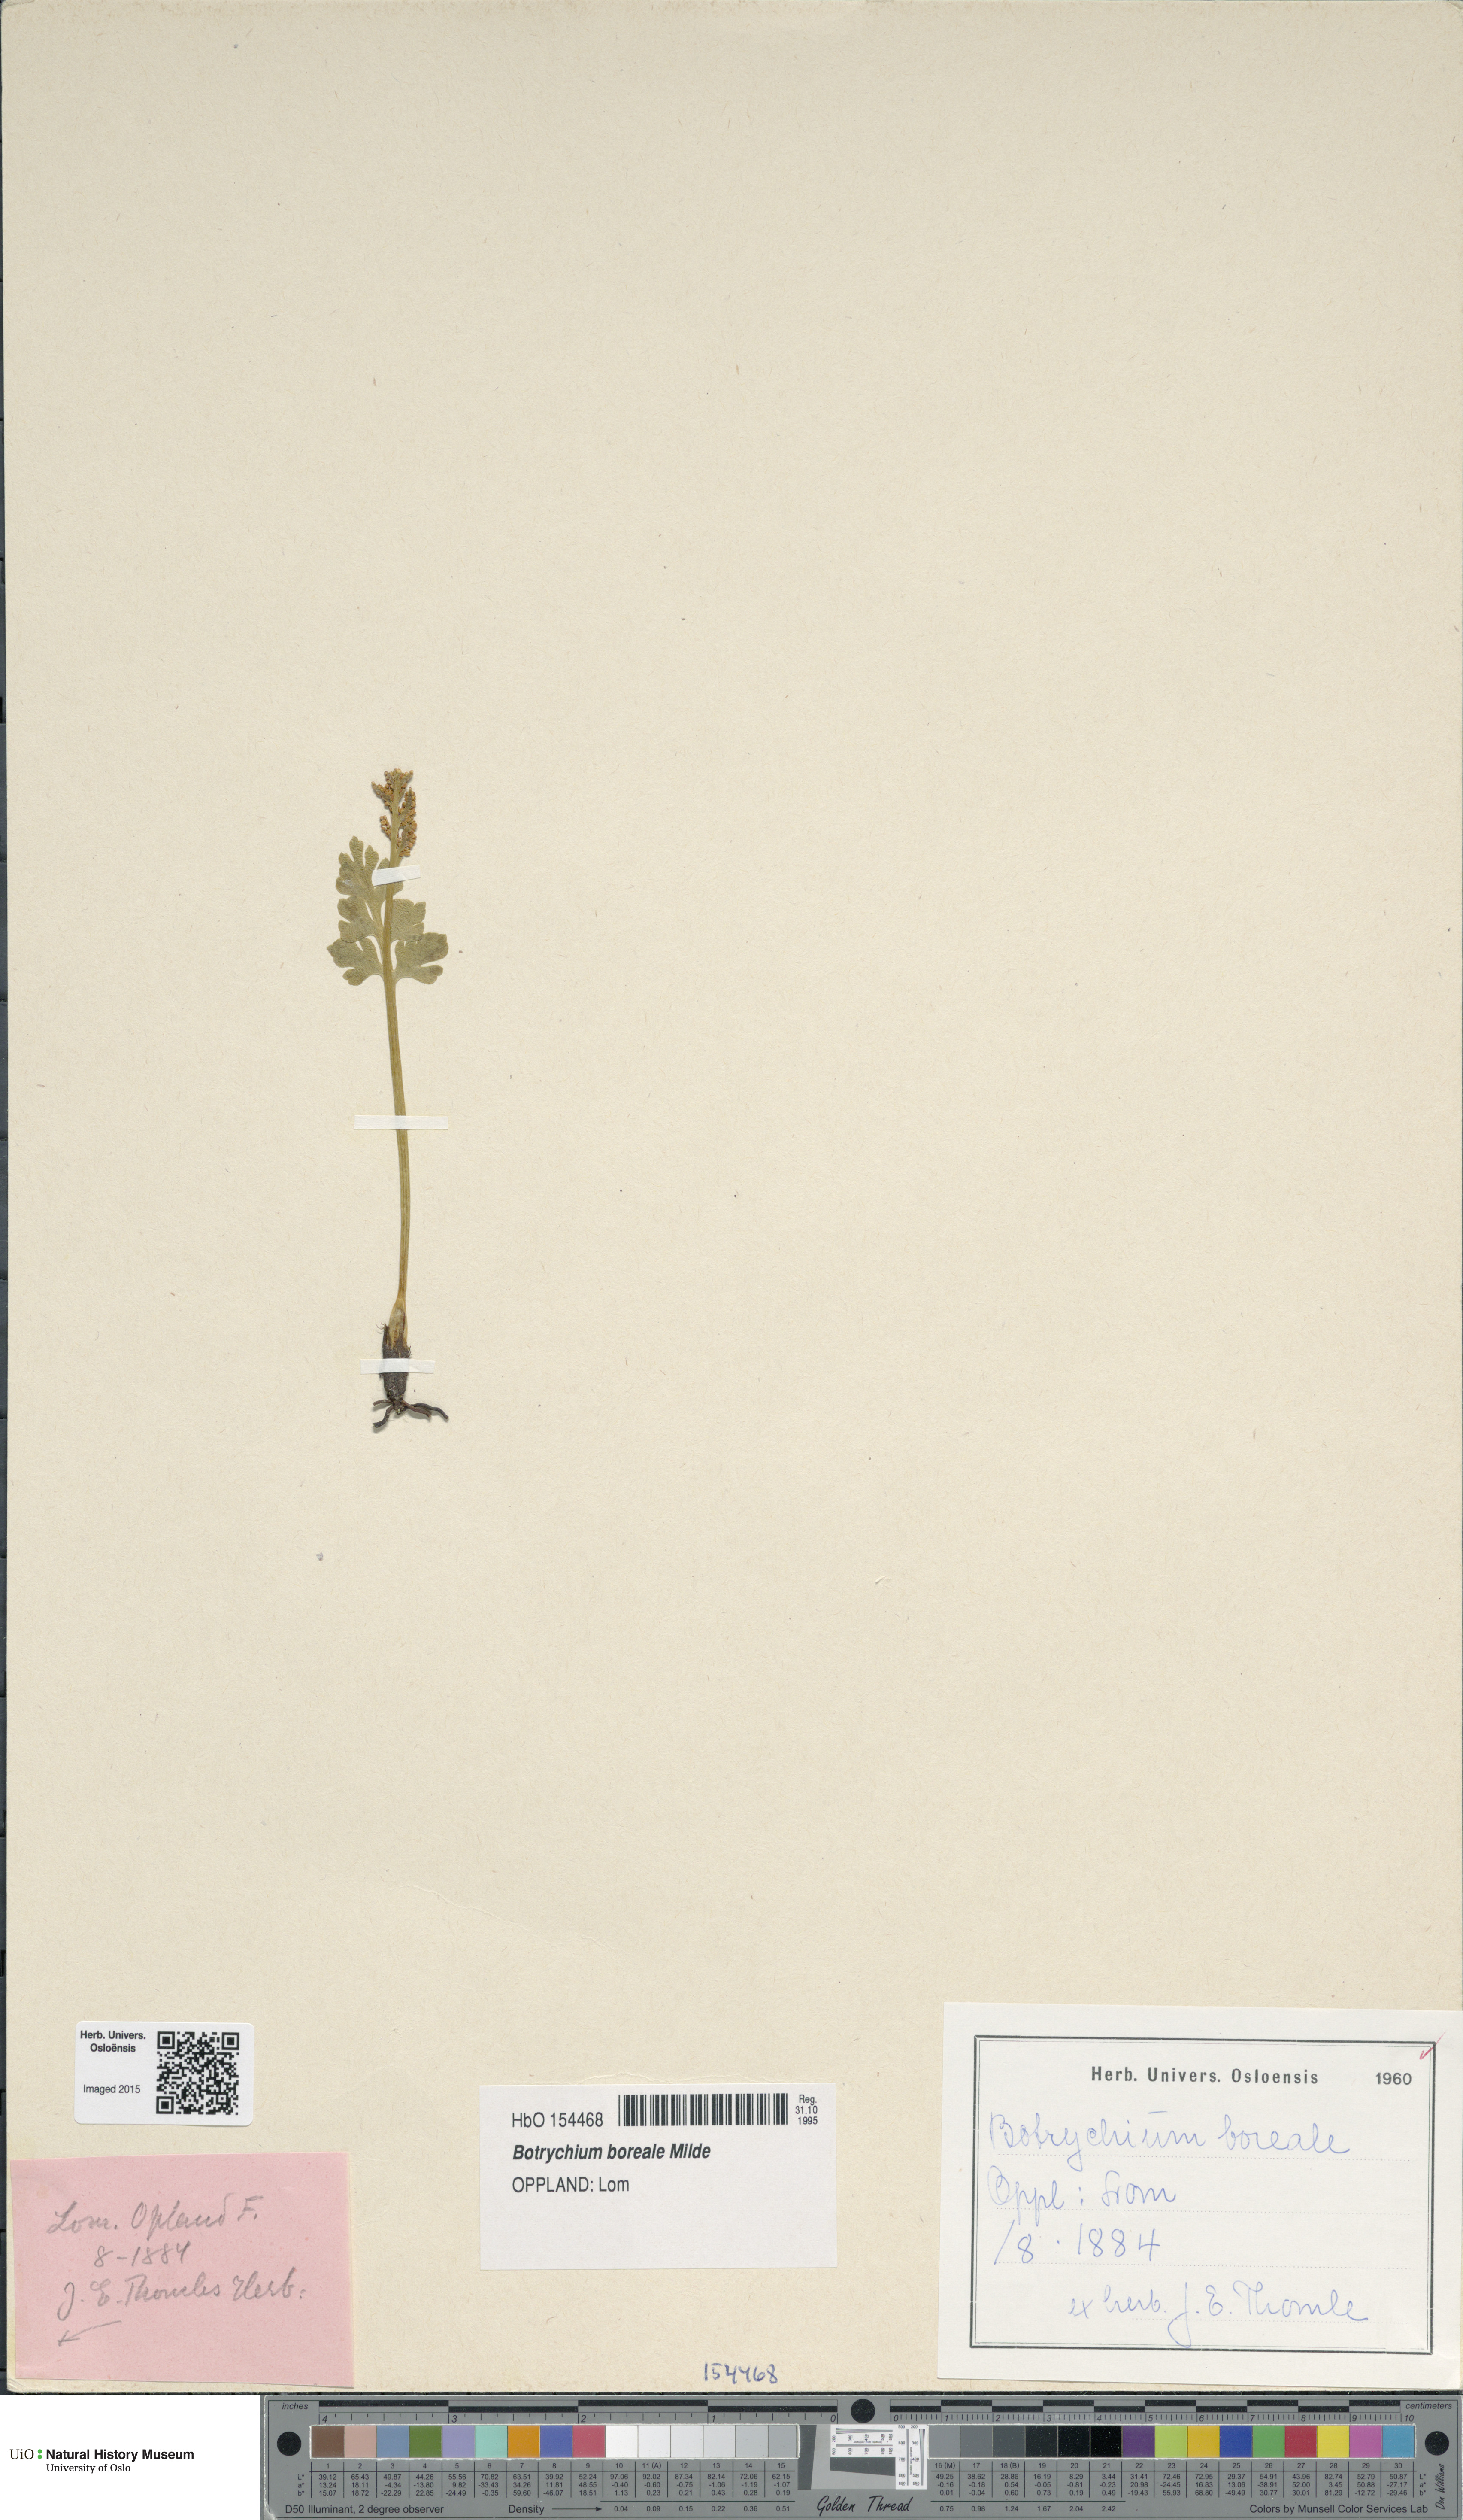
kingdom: Plantae
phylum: Tracheophyta
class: Polypodiopsida
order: Ophioglossales
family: Ophioglossaceae
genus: Botrychium
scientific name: Botrychium boreale
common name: Boreal moonwort
